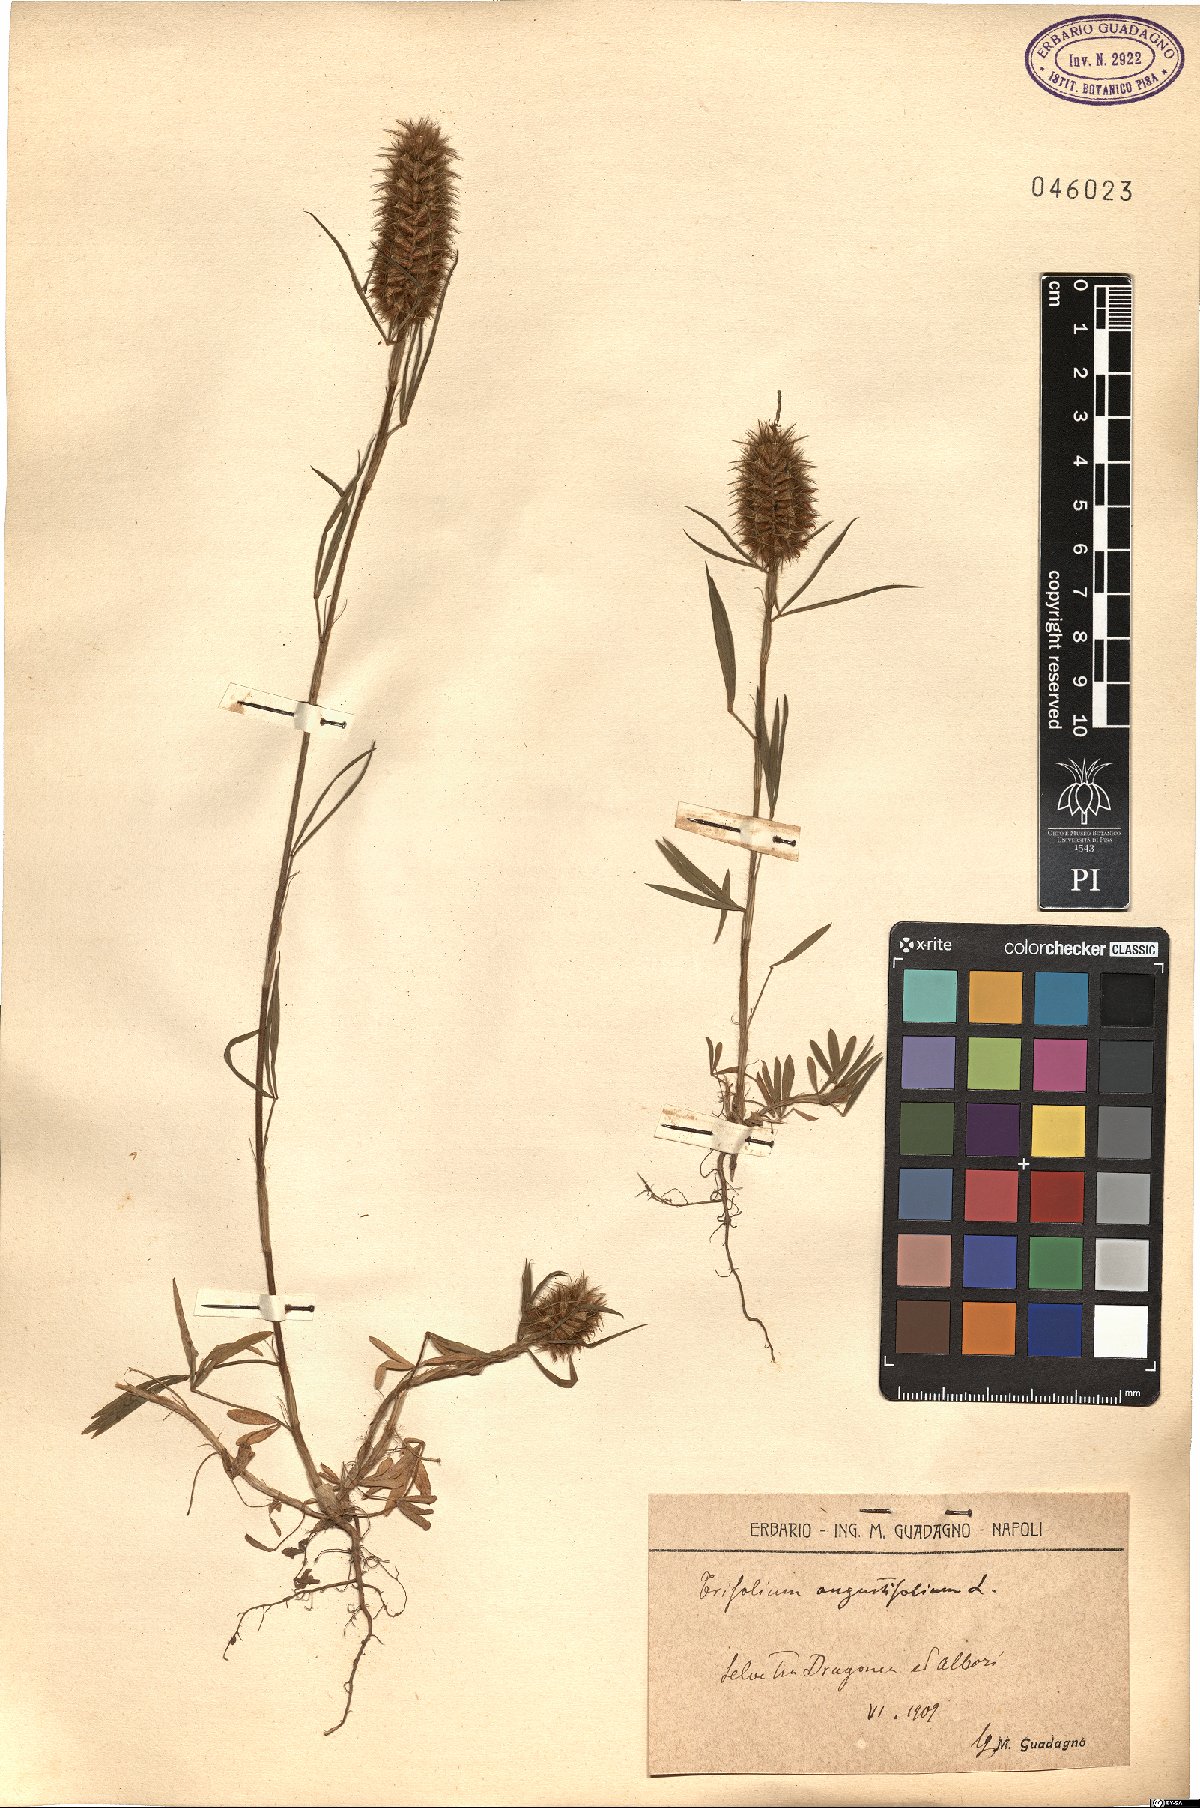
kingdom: Plantae
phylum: Tracheophyta
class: Magnoliopsida
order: Fabales
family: Fabaceae
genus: Trifolium
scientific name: Trifolium angustifolium
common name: Narrow clover
